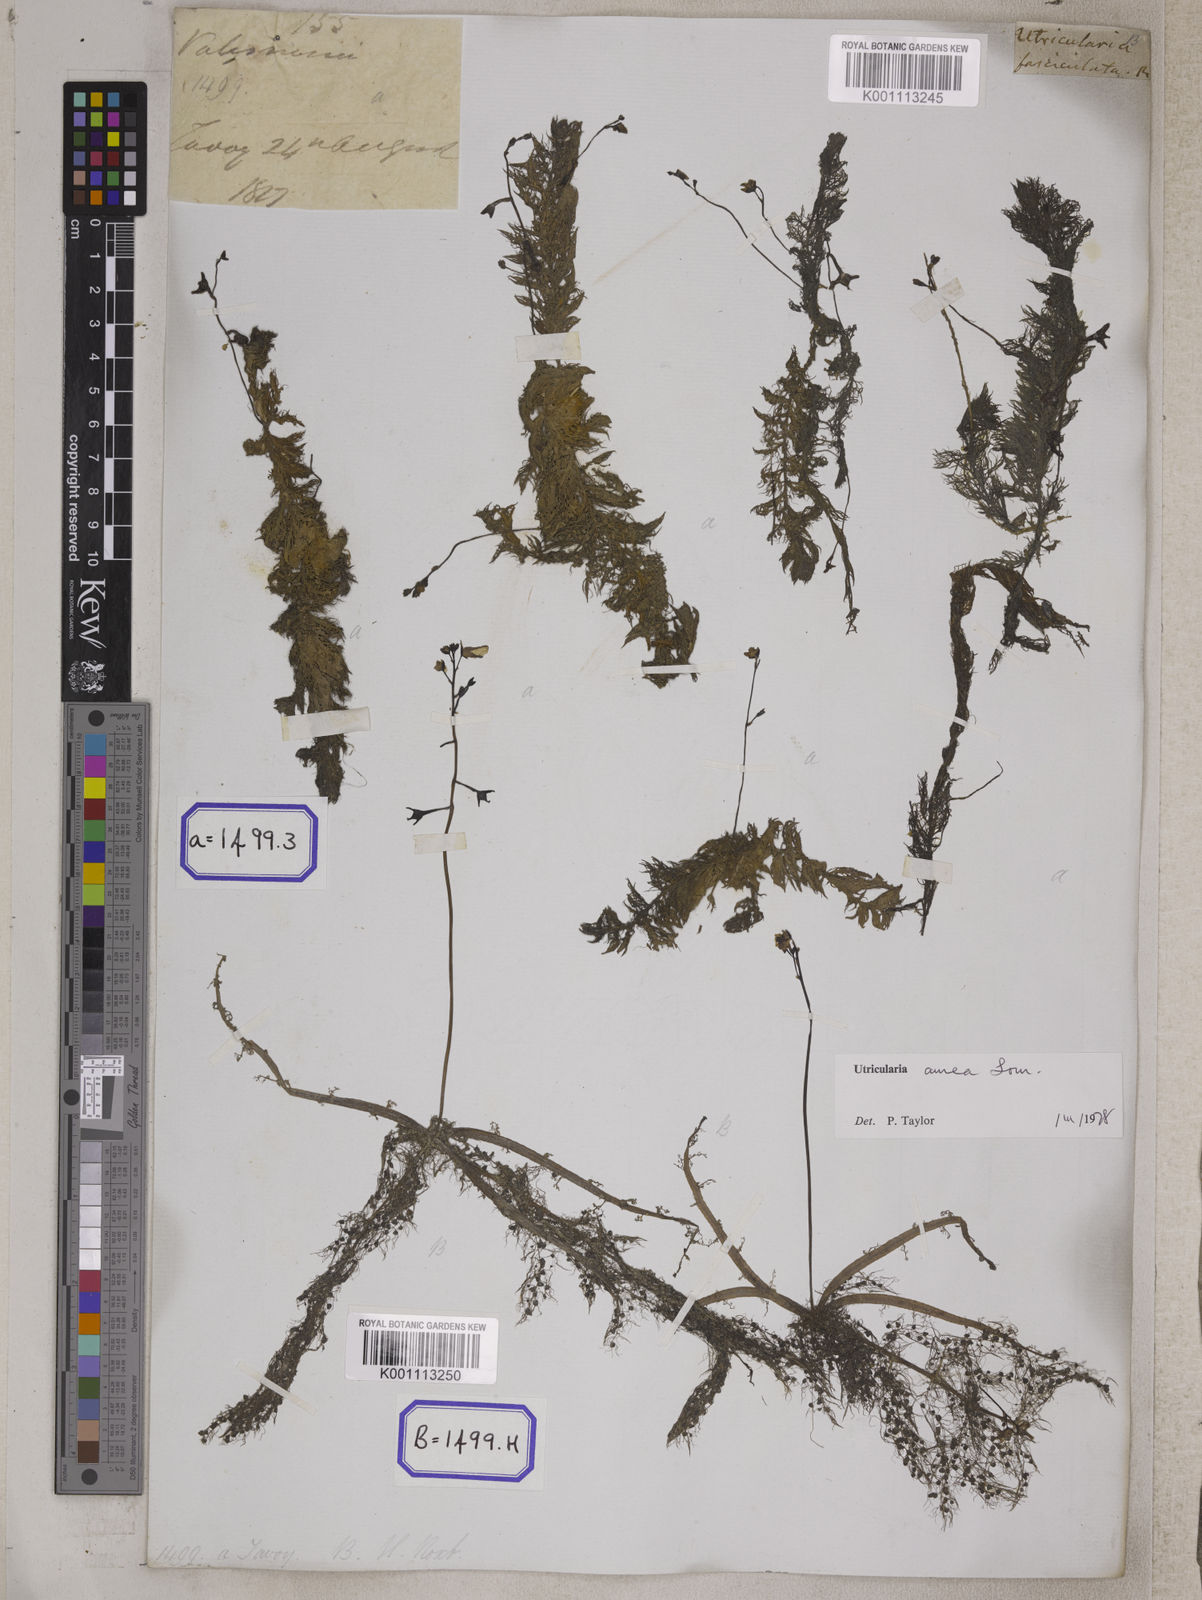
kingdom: Plantae
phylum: Tracheophyta
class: Magnoliopsida
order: Lamiales
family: Lentibulariaceae
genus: Utricularia
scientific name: Utricularia aurea
